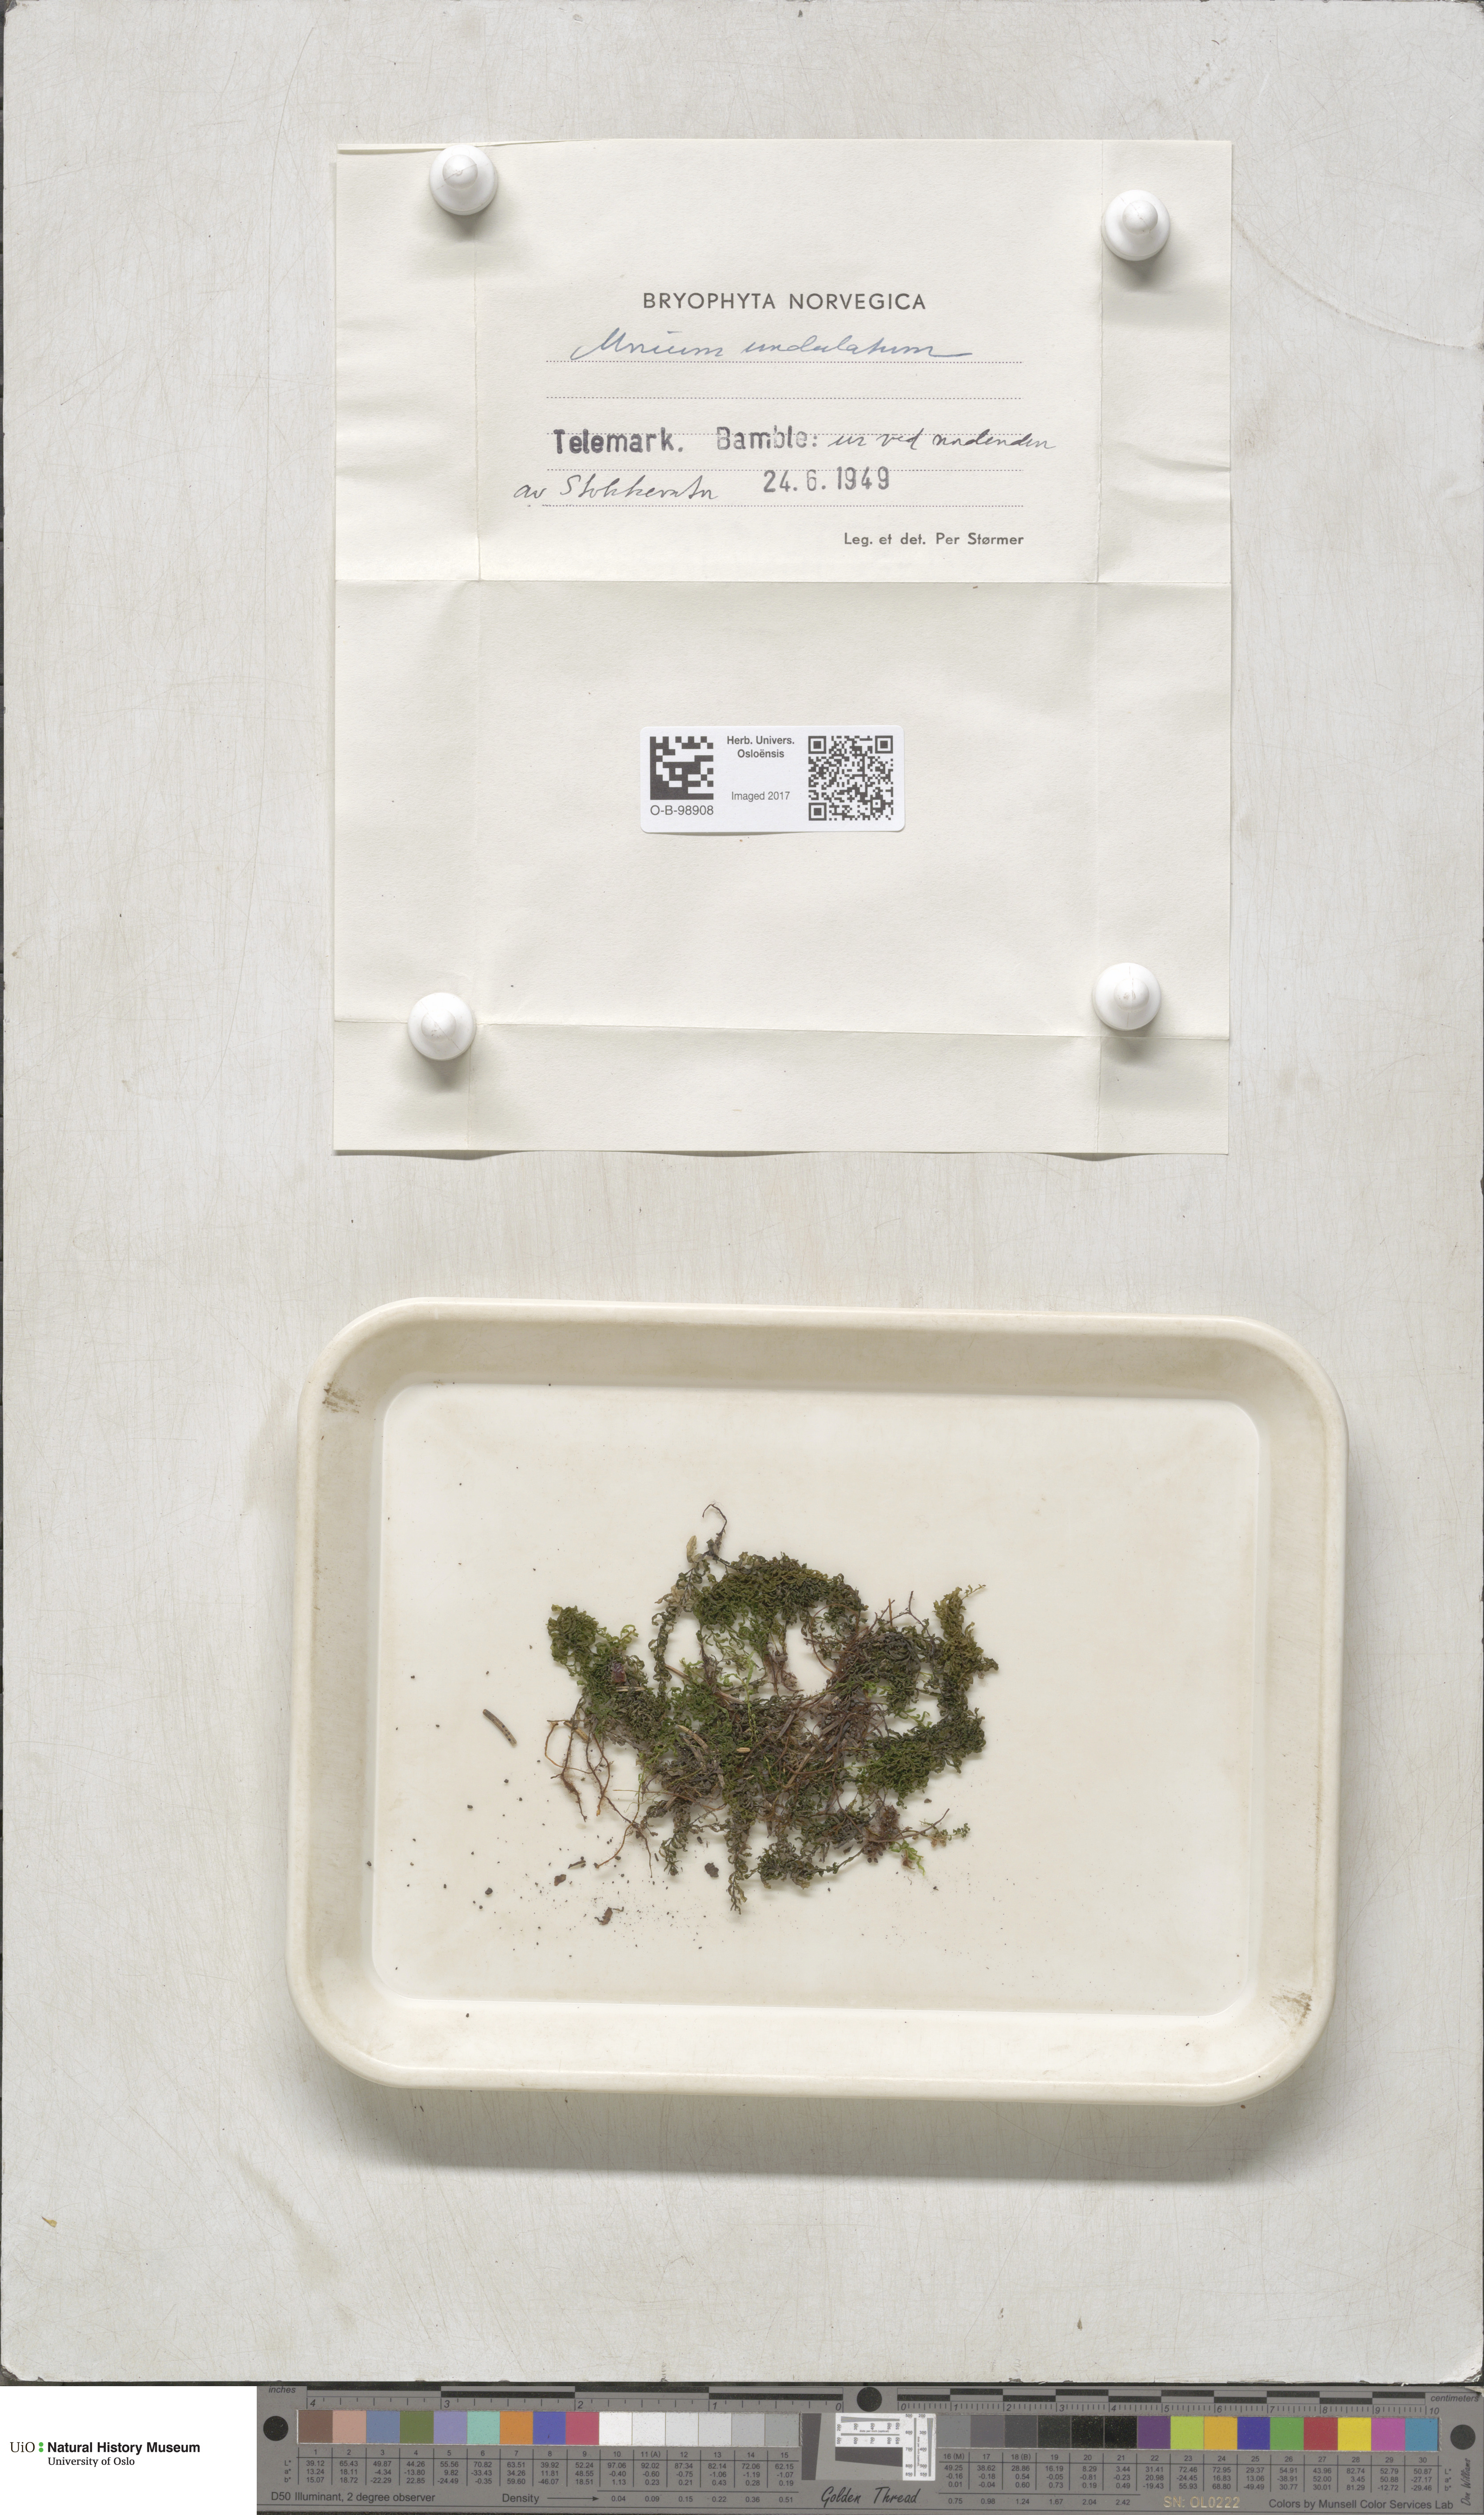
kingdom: Plantae
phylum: Bryophyta
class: Bryopsida
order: Bryales
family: Mniaceae
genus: Plagiomnium
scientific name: Plagiomnium undulatum
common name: Hart's-tongue thyme-moss
